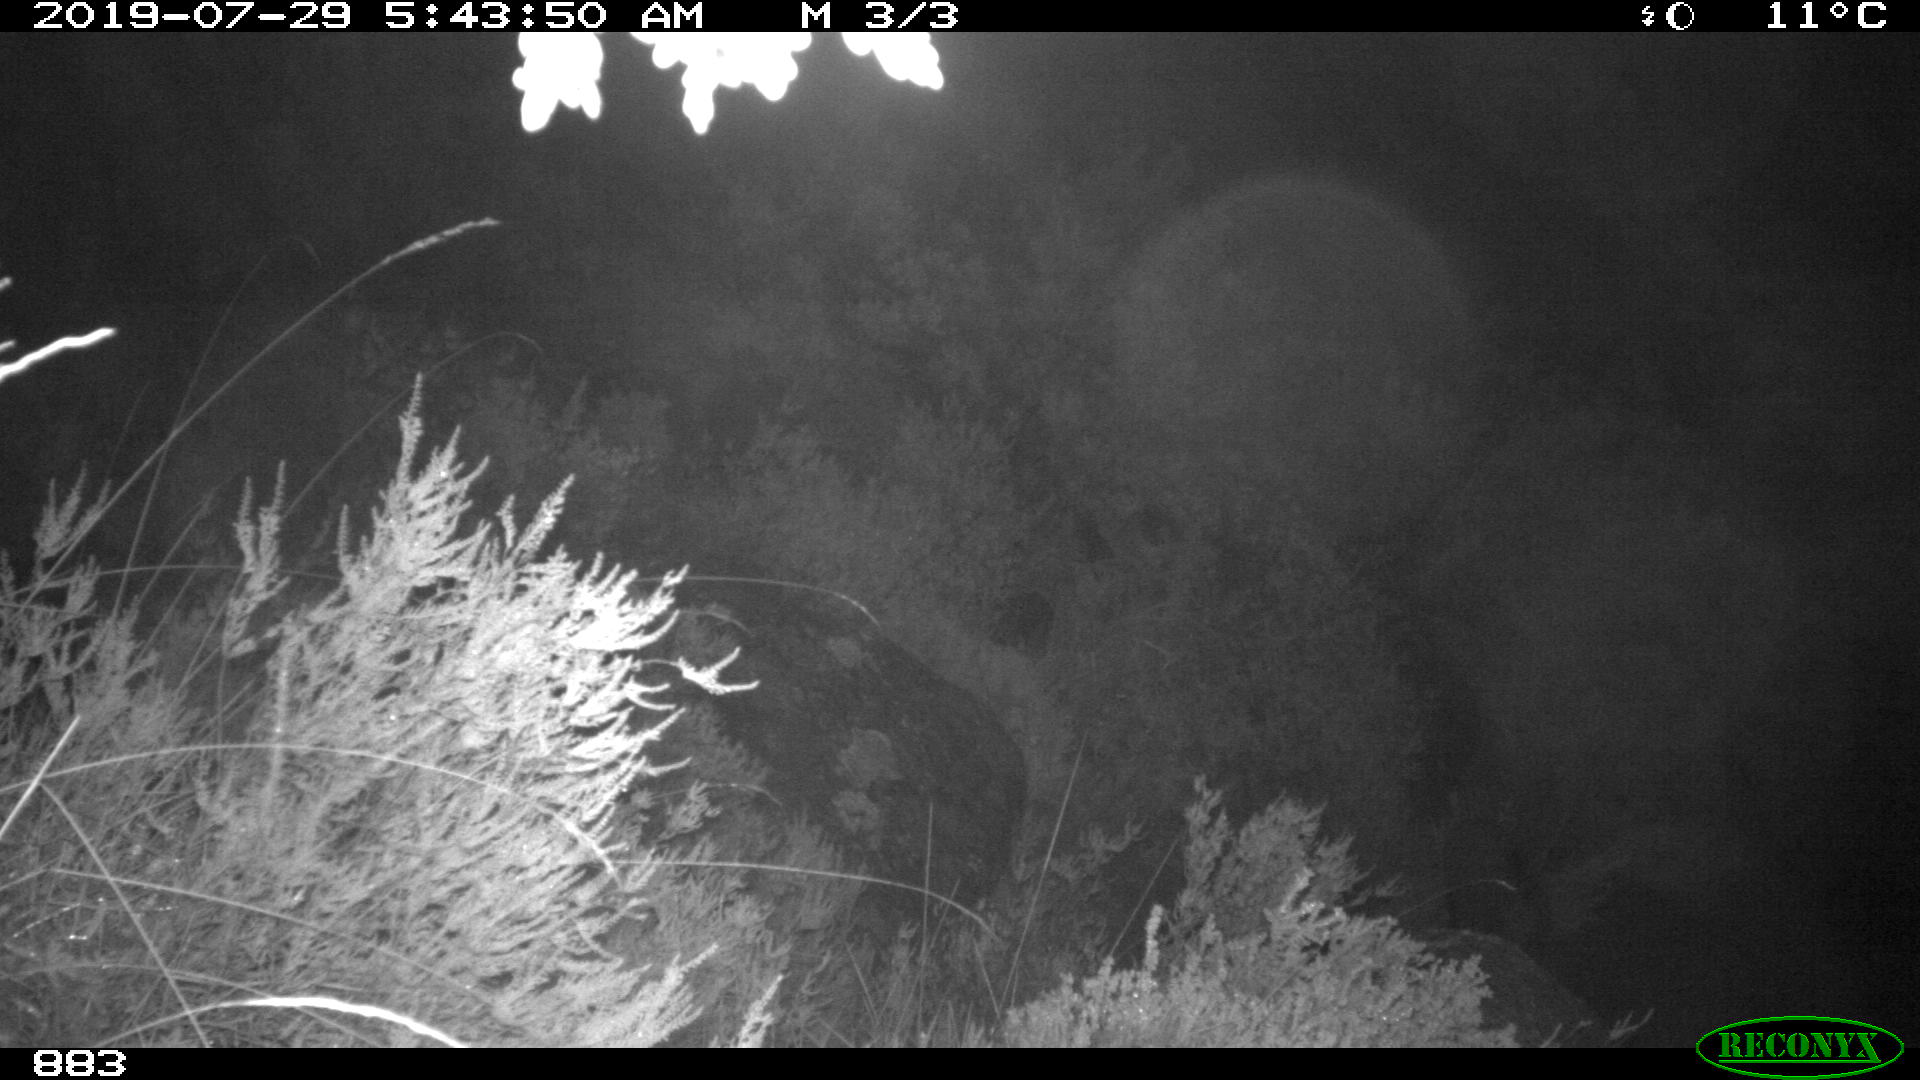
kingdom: Animalia
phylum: Chordata
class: Mammalia
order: Artiodactyla
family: Suidae
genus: Sus
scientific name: Sus scrofa
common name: Wild boar
